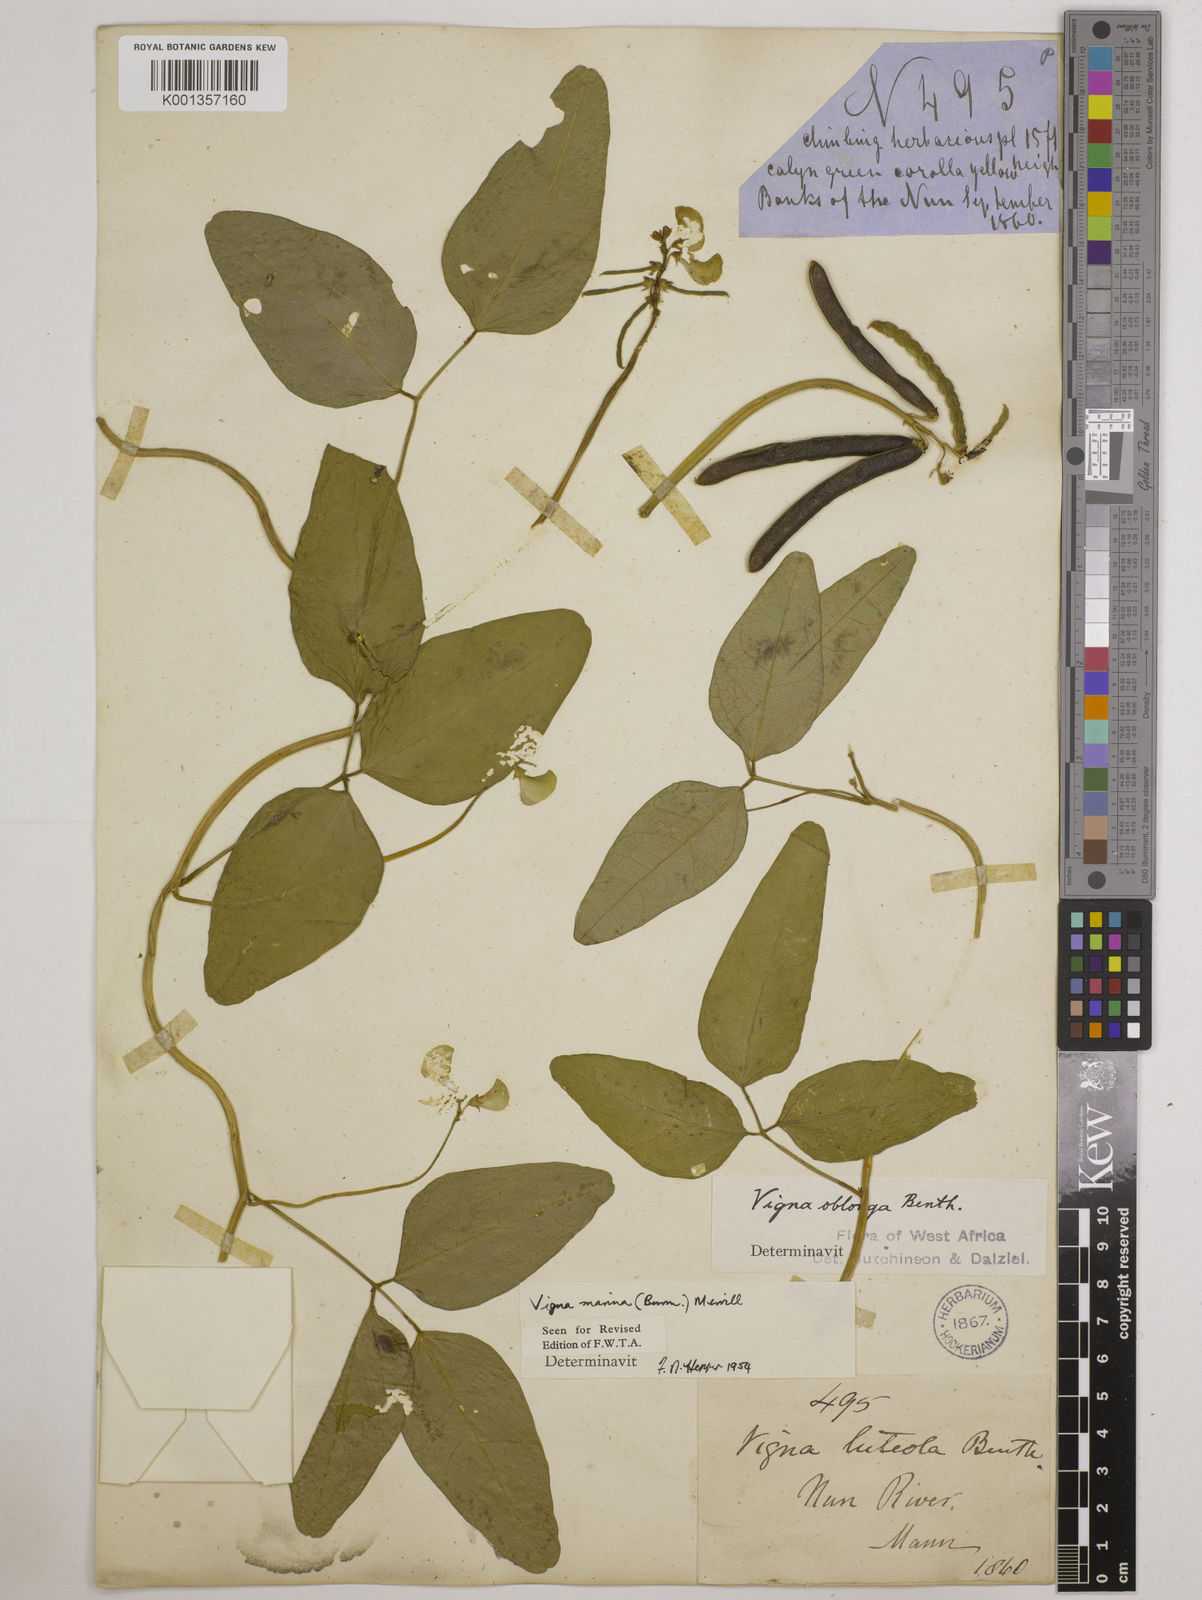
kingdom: Plantae
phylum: Tracheophyta
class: Magnoliopsida
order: Fabales
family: Fabaceae
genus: Vigna
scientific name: Vigna marina
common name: Dune-bean
